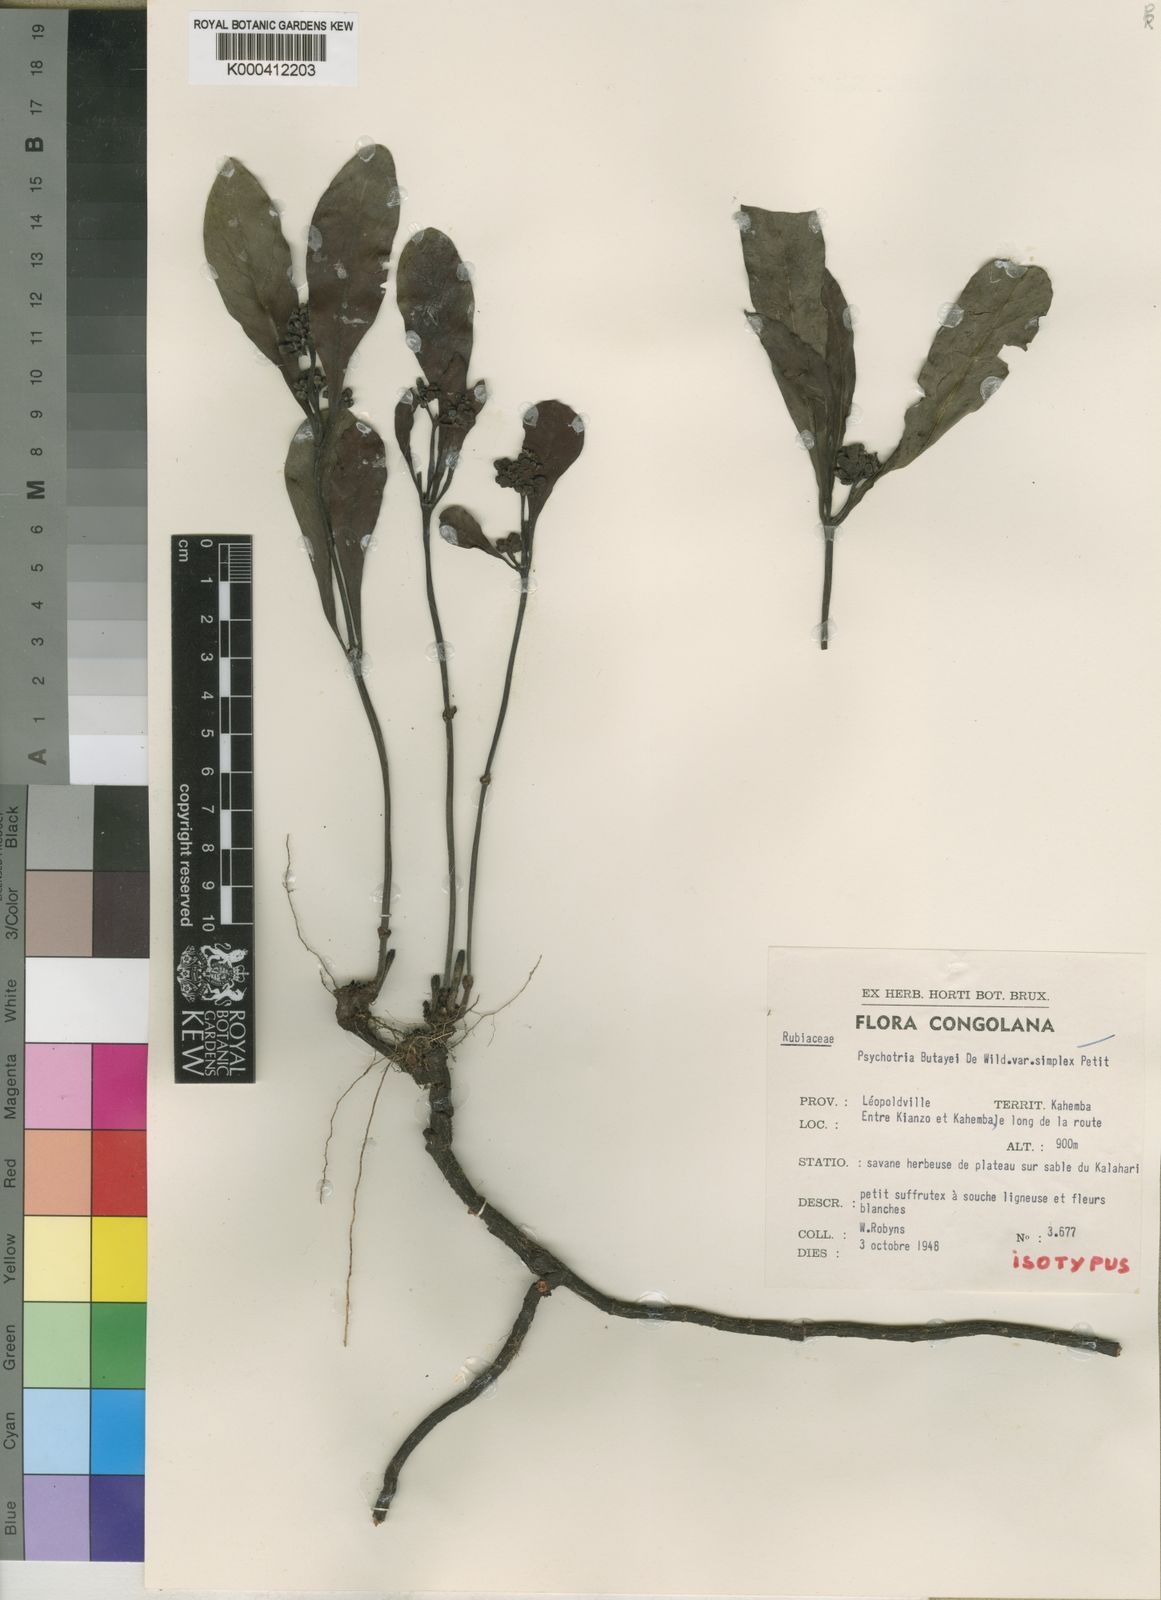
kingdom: Plantae
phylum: Tracheophyta
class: Magnoliopsida
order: Gentianales
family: Rubiaceae
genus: Psychotria
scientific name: Psychotria moninensis
